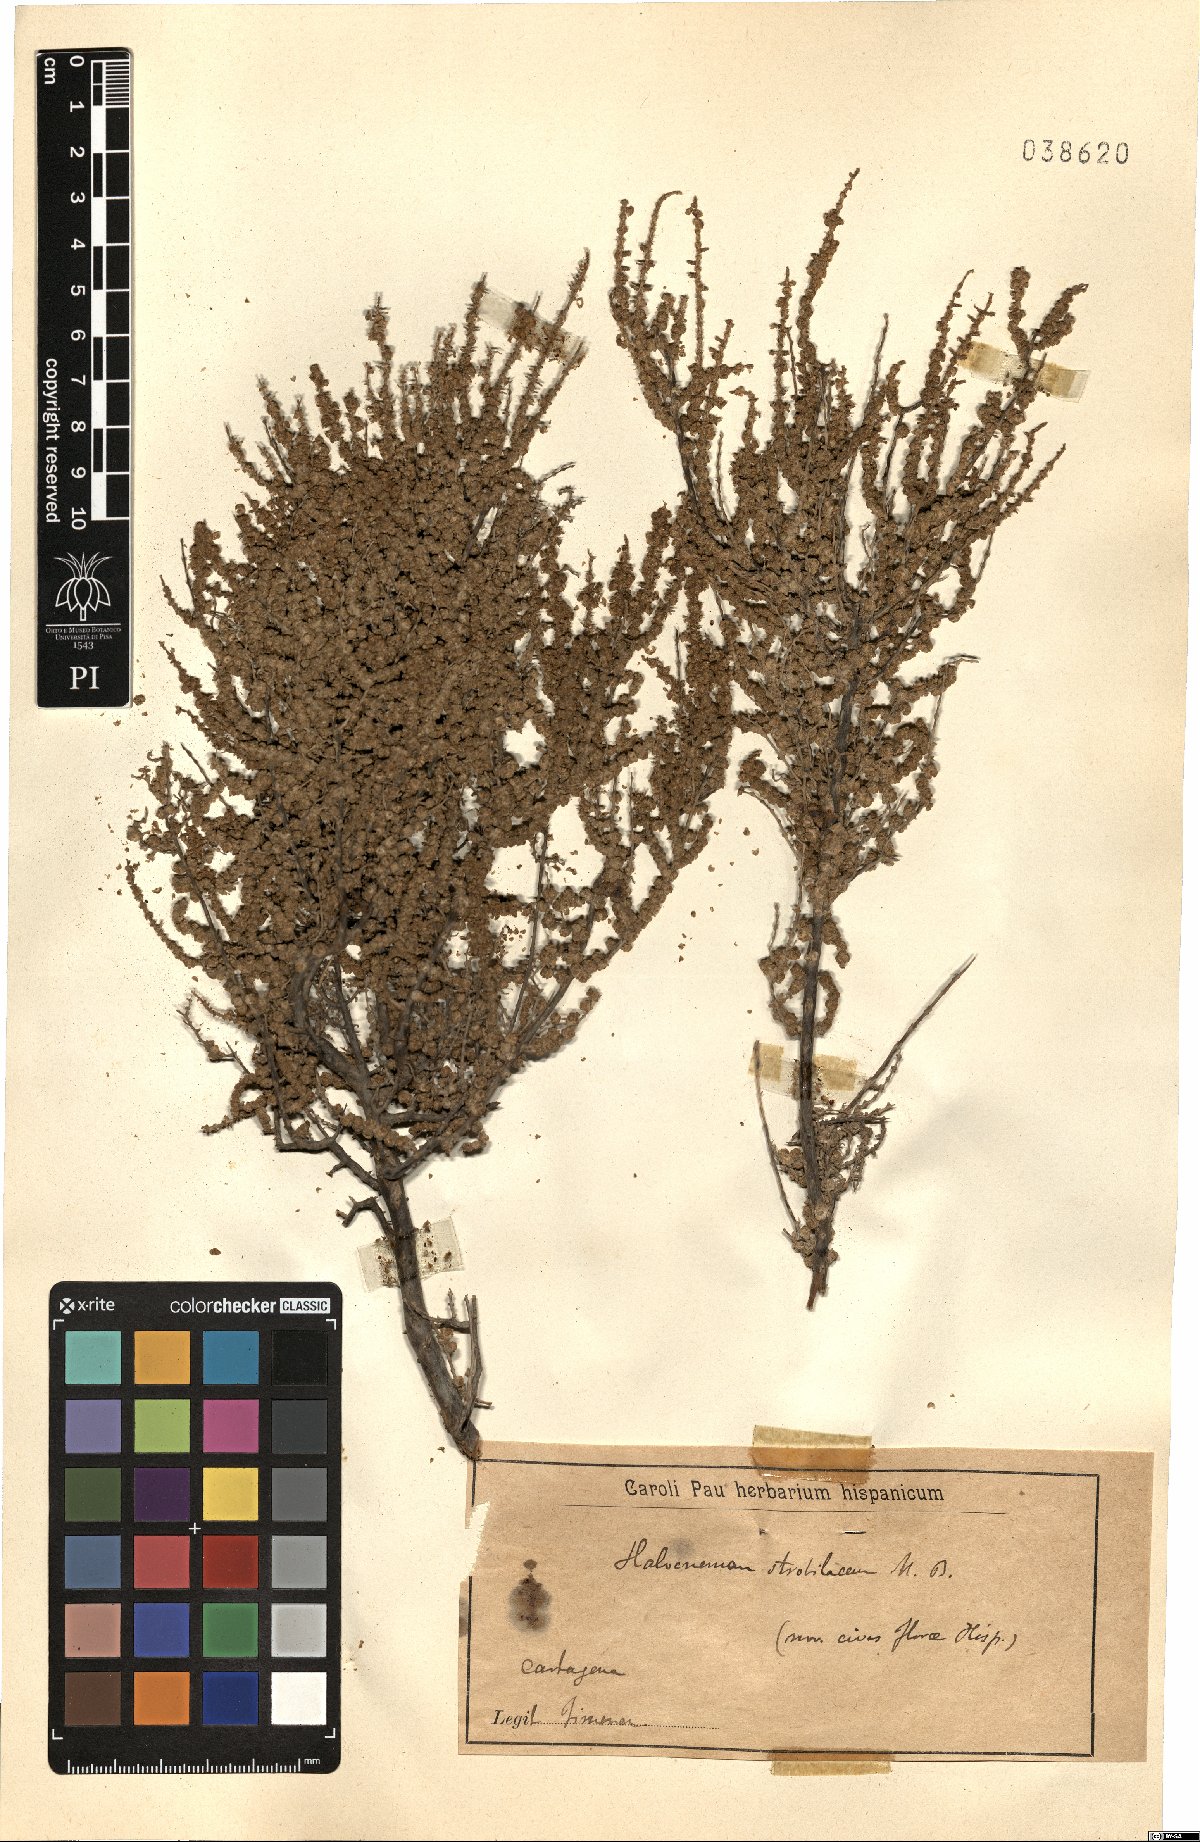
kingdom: Plantae
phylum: Tracheophyta
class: Magnoliopsida
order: Caryophyllales
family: Amaranthaceae
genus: Halocnemum
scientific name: Halocnemum strobilaceum
